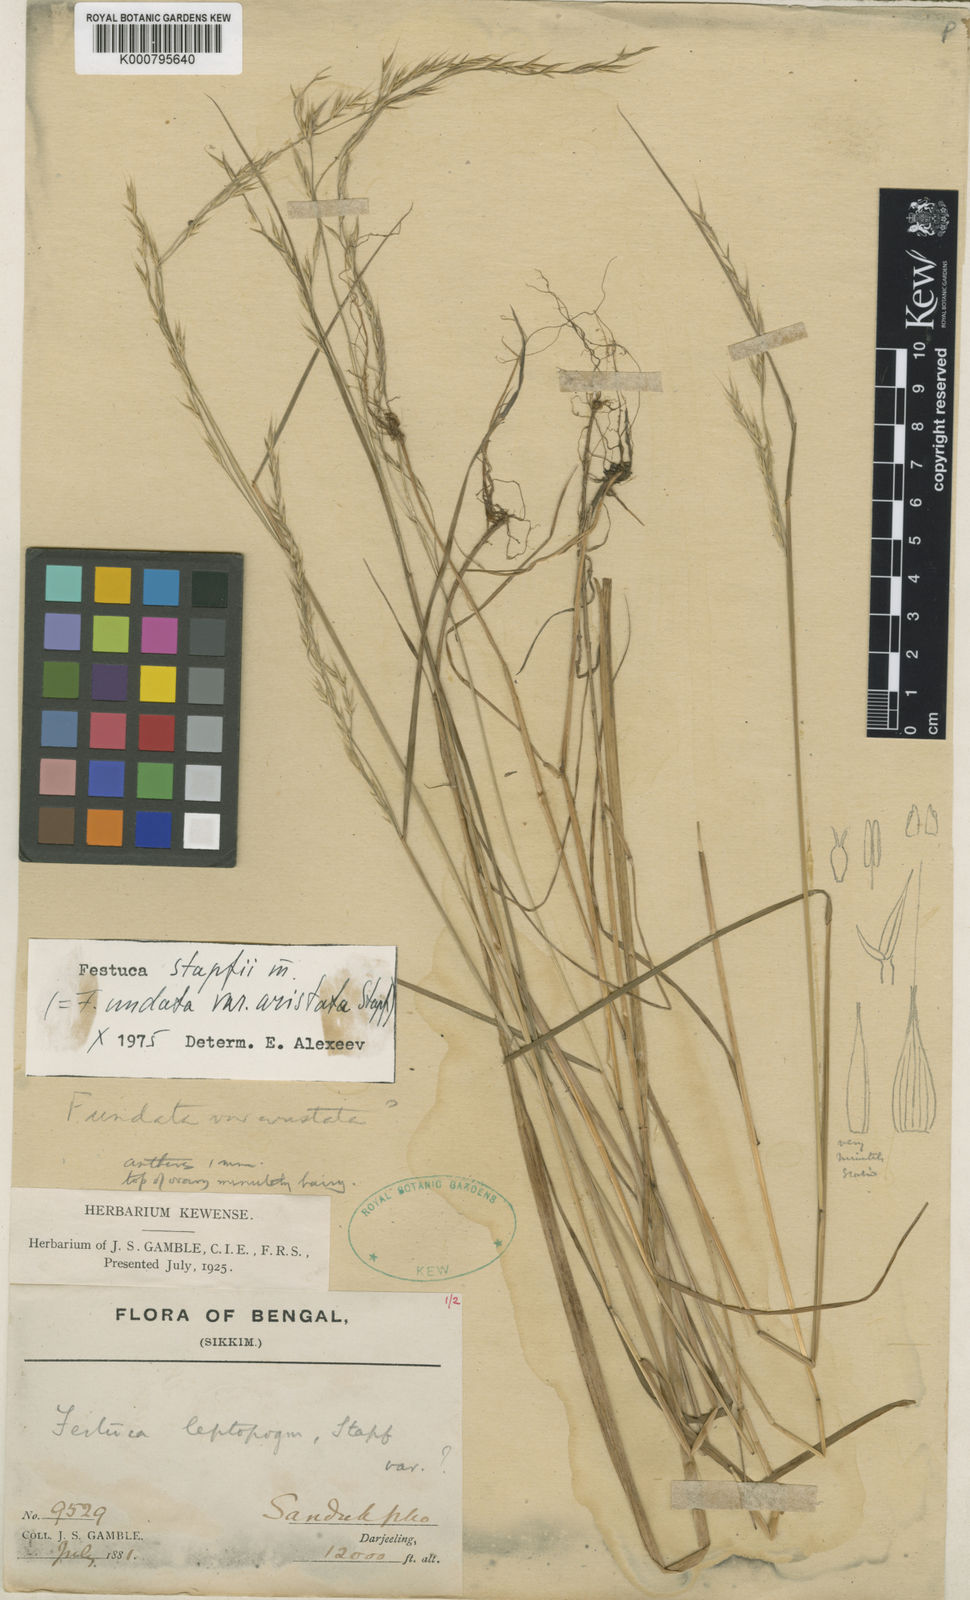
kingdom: Plantae
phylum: Tracheophyta
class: Liliopsida
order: Poales
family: Poaceae
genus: Festuca
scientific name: Festuca undata
